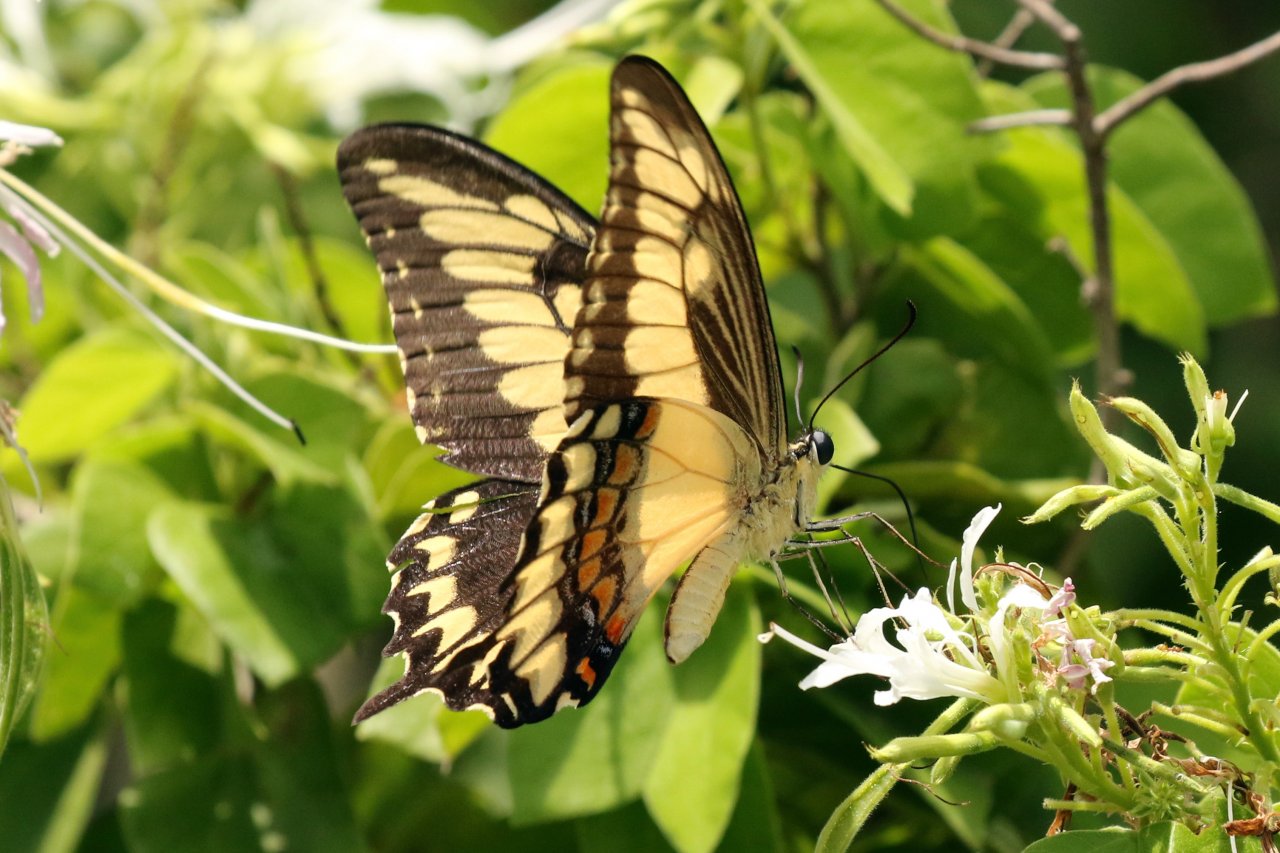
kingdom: Animalia
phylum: Arthropoda
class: Insecta
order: Lepidoptera
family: Papilionidae
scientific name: Papilionidae
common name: Swallowtails and Parnassians
